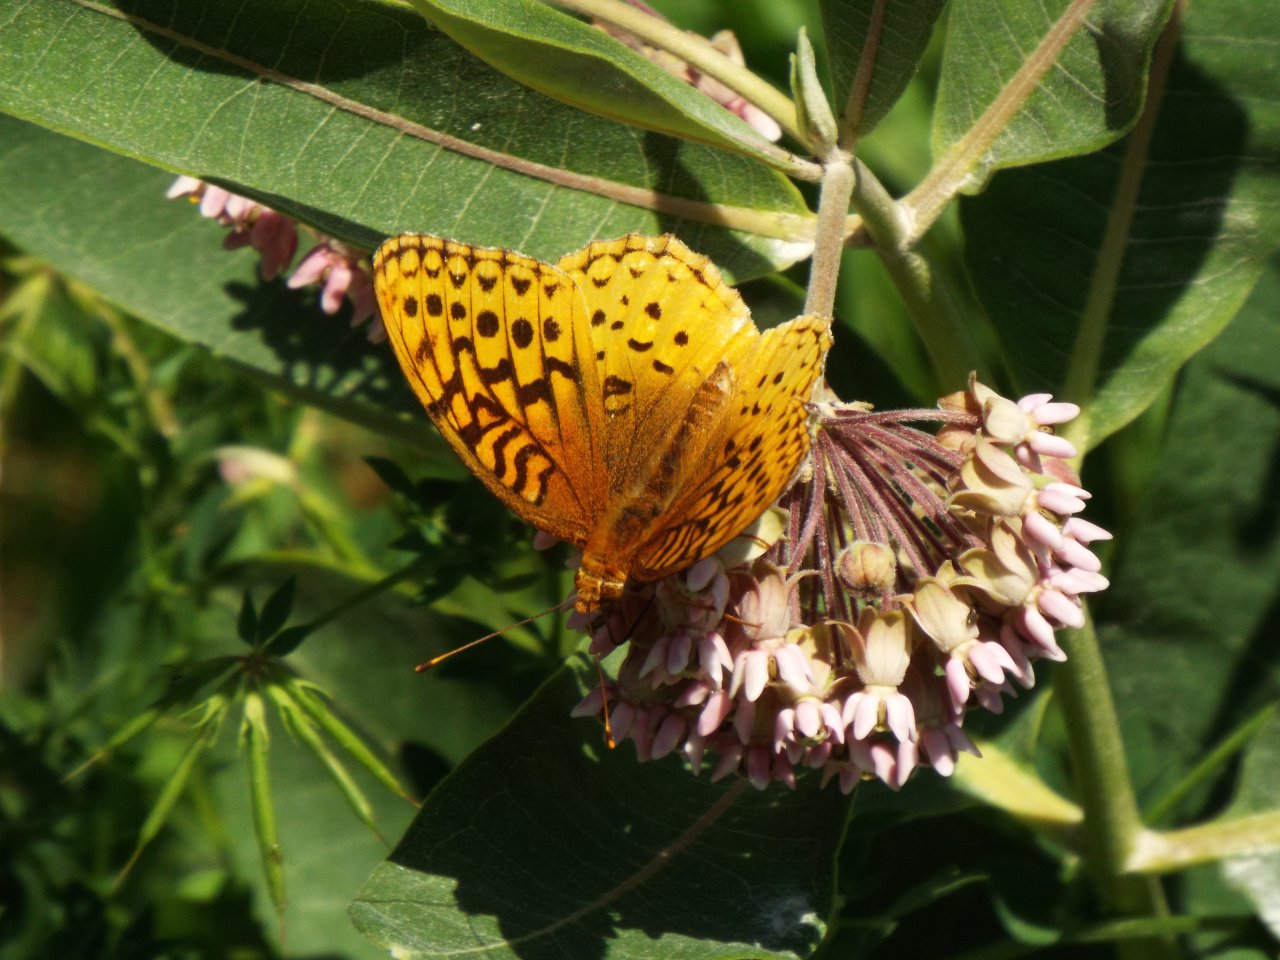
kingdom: Animalia
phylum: Arthropoda
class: Insecta
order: Lepidoptera
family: Nymphalidae
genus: Speyeria
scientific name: Speyeria cybele
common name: Great Spangled Fritillary
